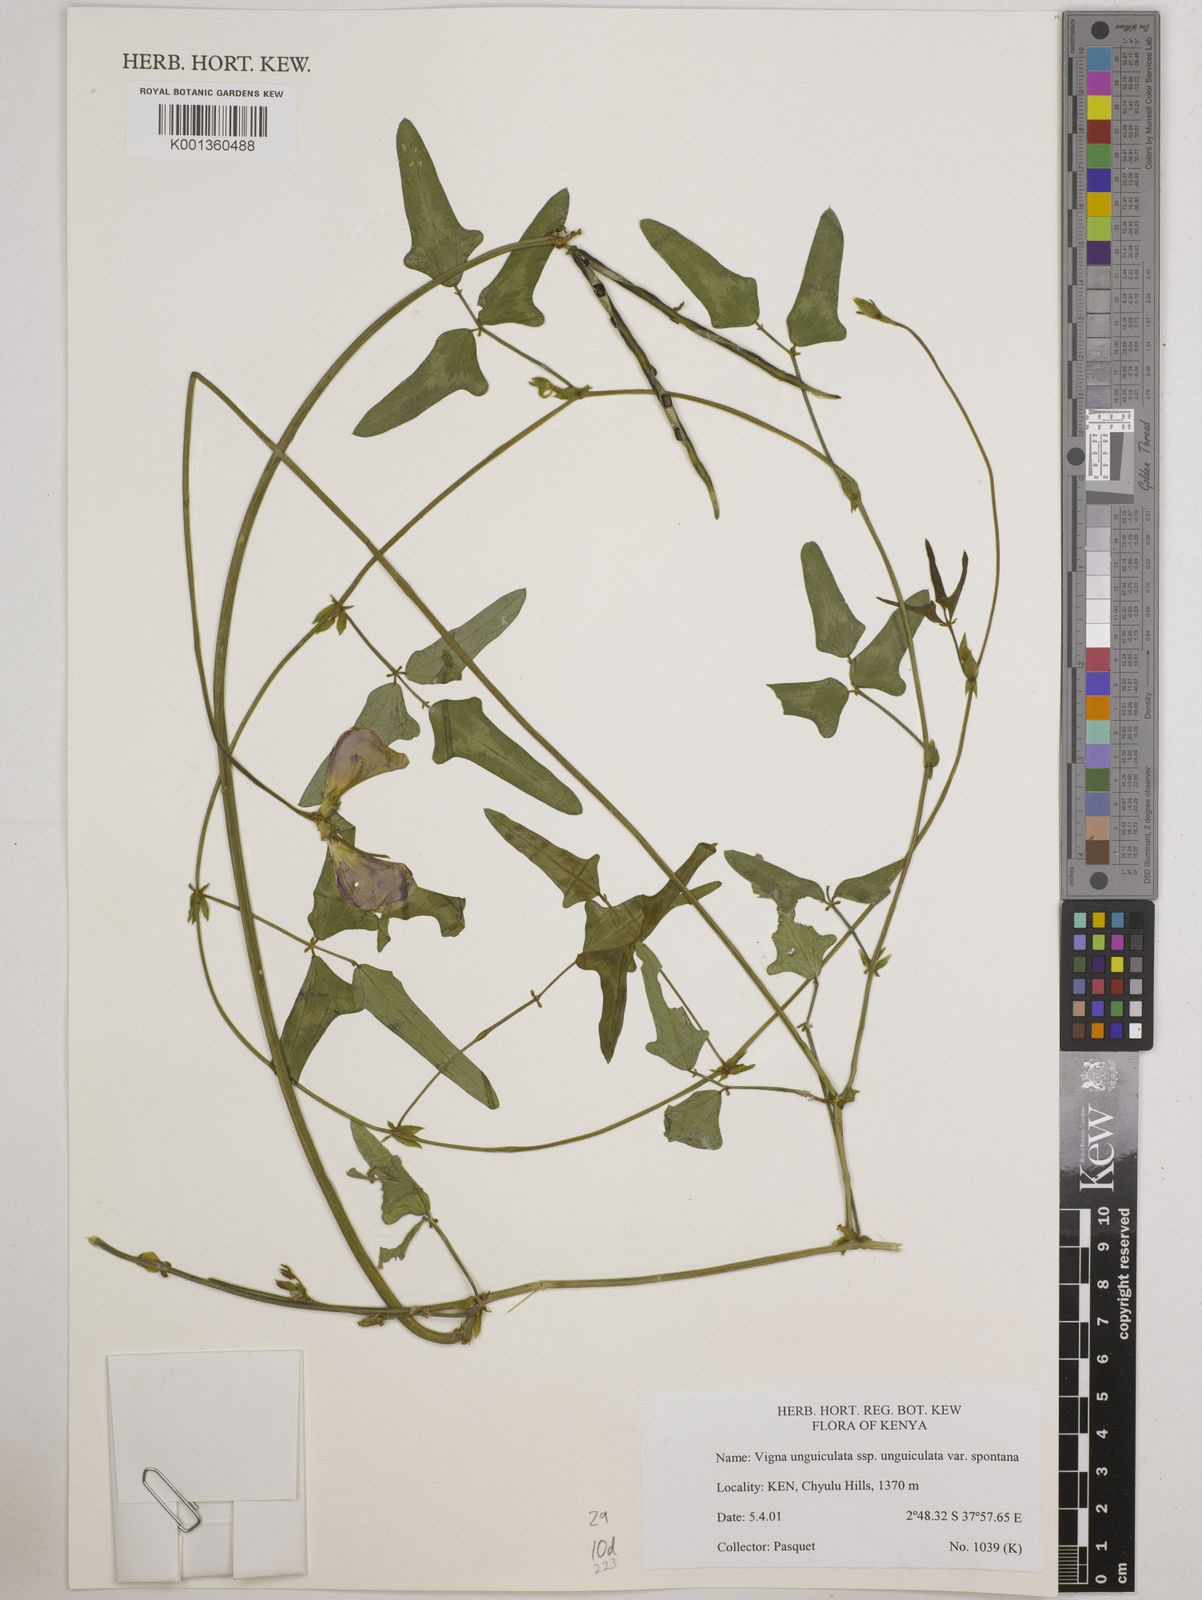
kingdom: Plantae
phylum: Tracheophyta
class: Magnoliopsida
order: Fabales
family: Fabaceae
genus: Vigna
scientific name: Vigna unguiculata
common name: Cowpea
